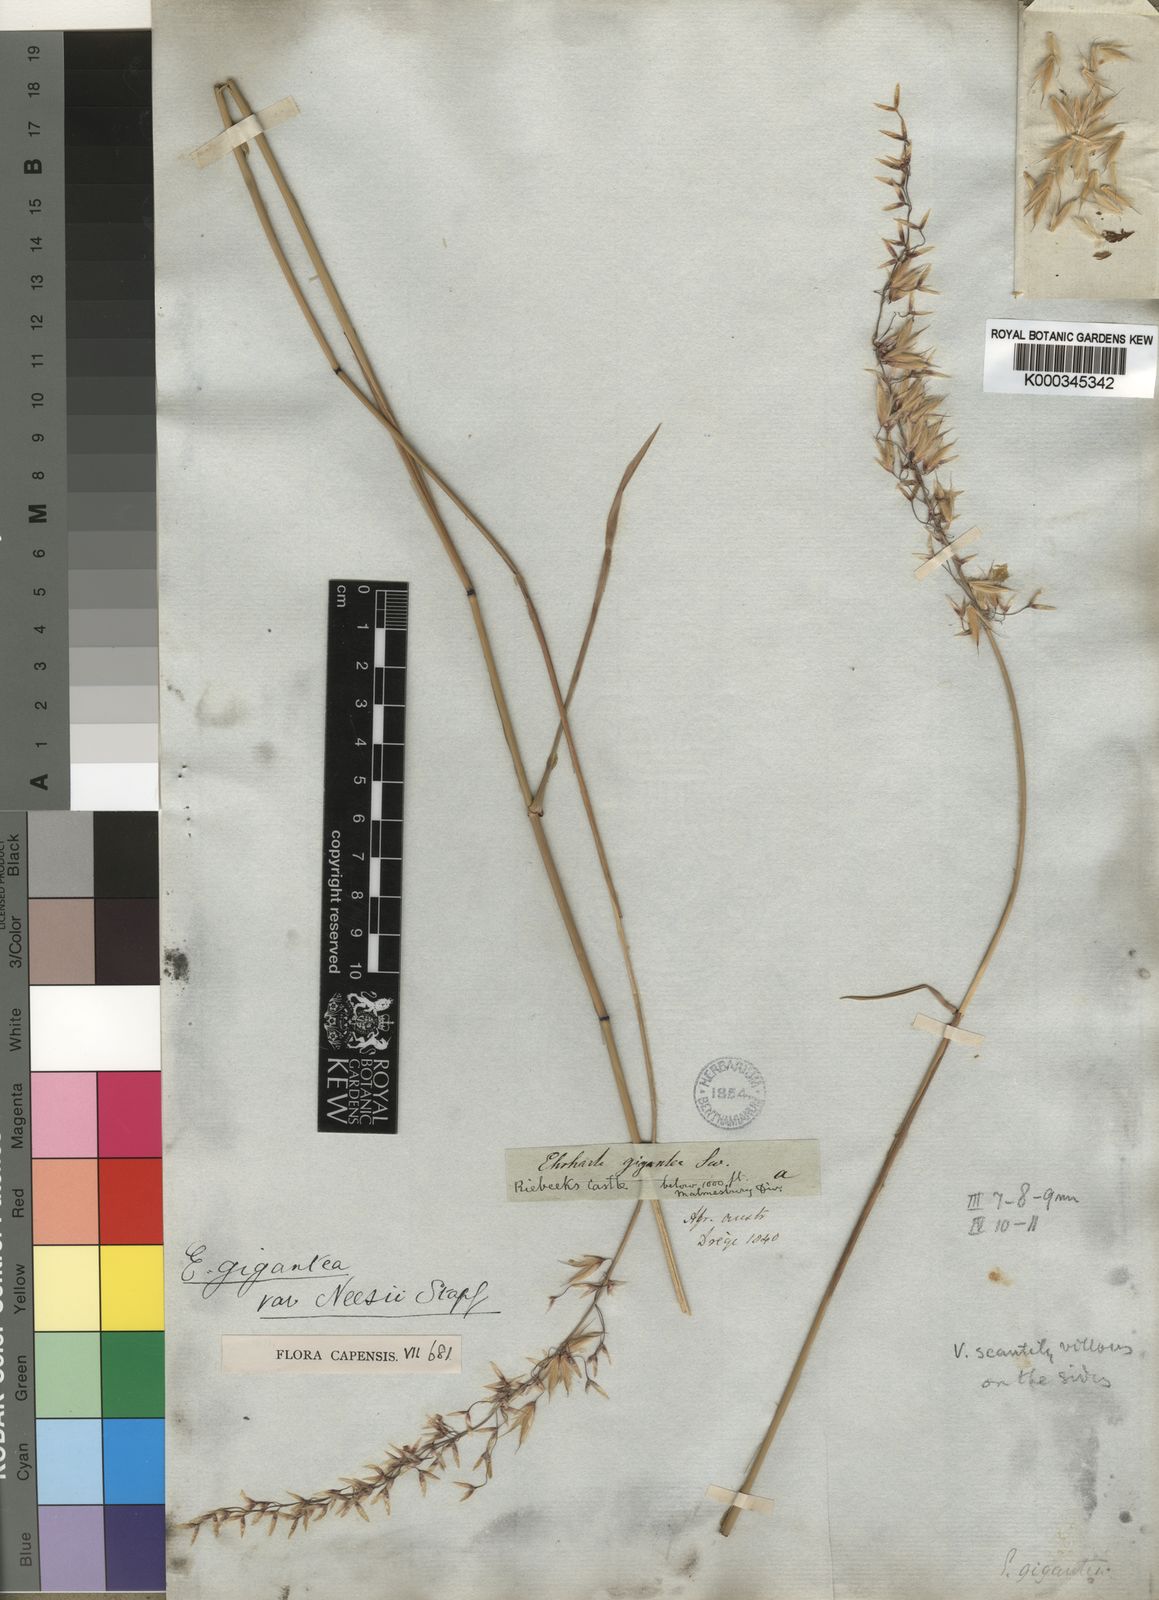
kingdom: Plantae
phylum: Tracheophyta
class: Liliopsida
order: Poales
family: Poaceae
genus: Ehrharta
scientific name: Ehrharta thunbergii
